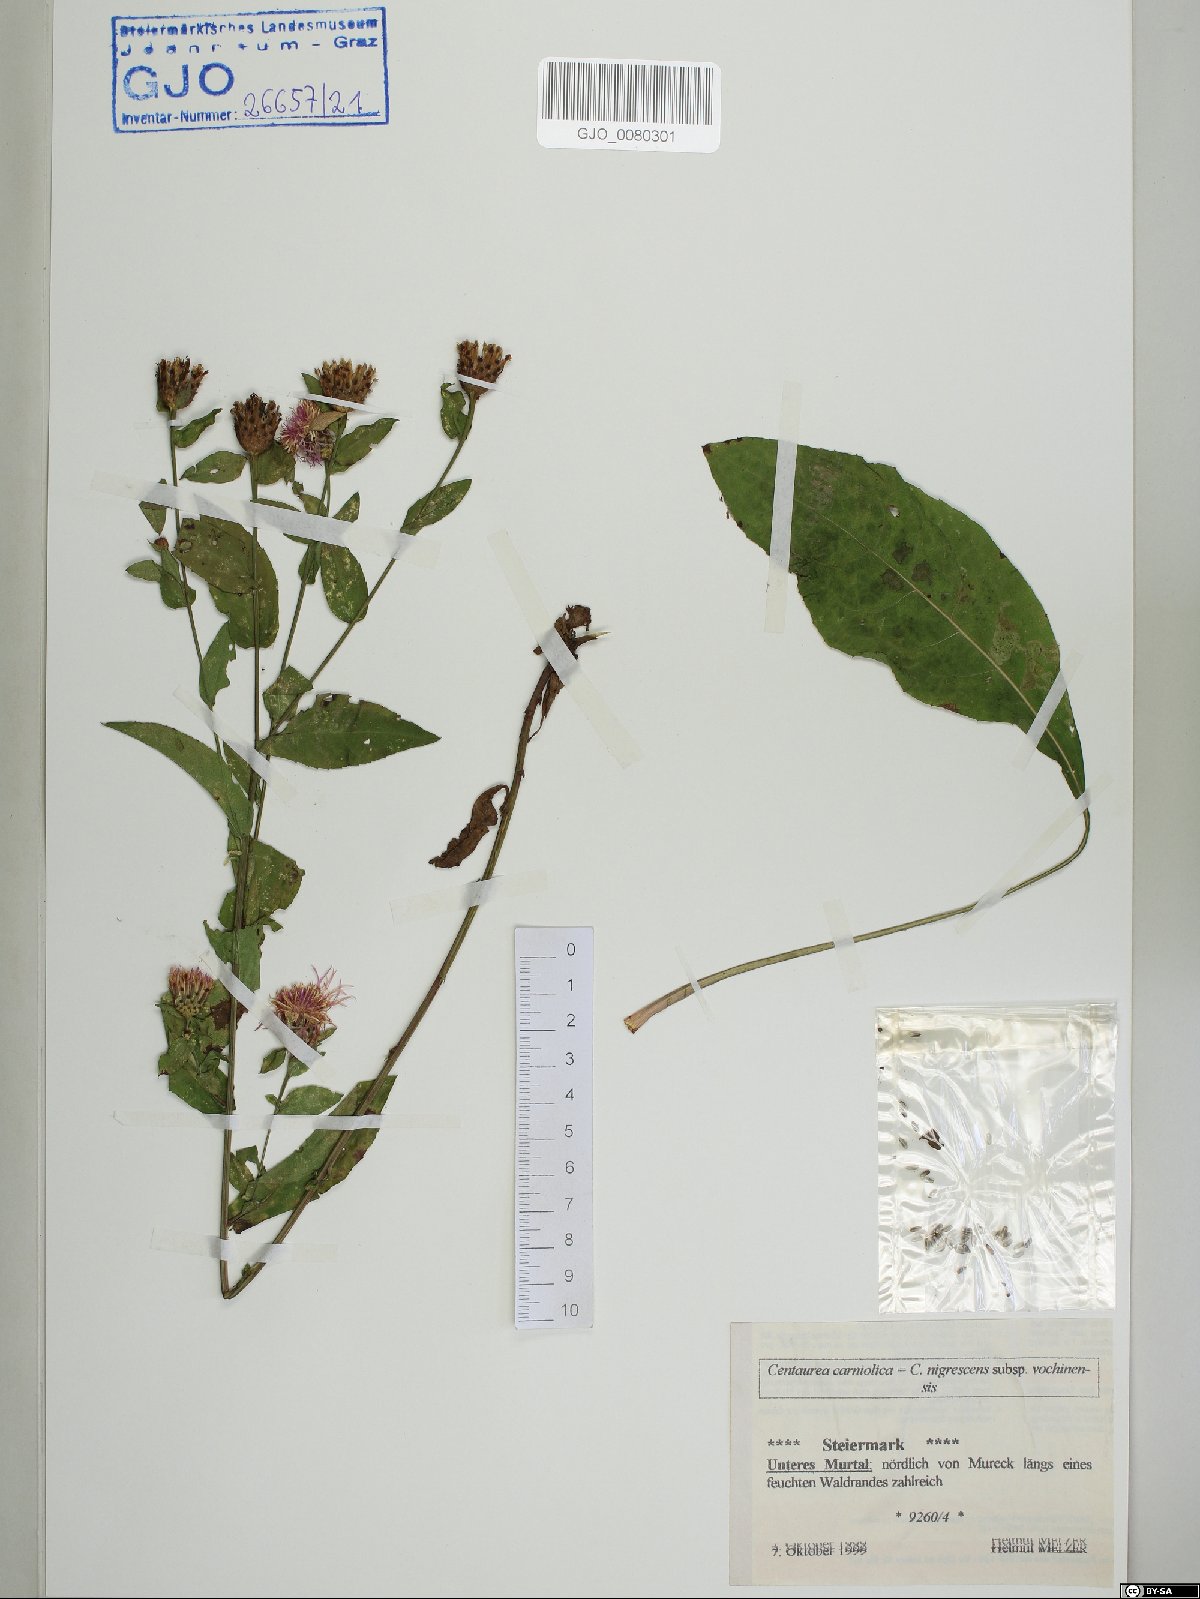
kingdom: Plantae
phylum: Tracheophyta
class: Magnoliopsida
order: Asterales
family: Asteraceae
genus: Centaurea
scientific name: Centaurea carniolica
